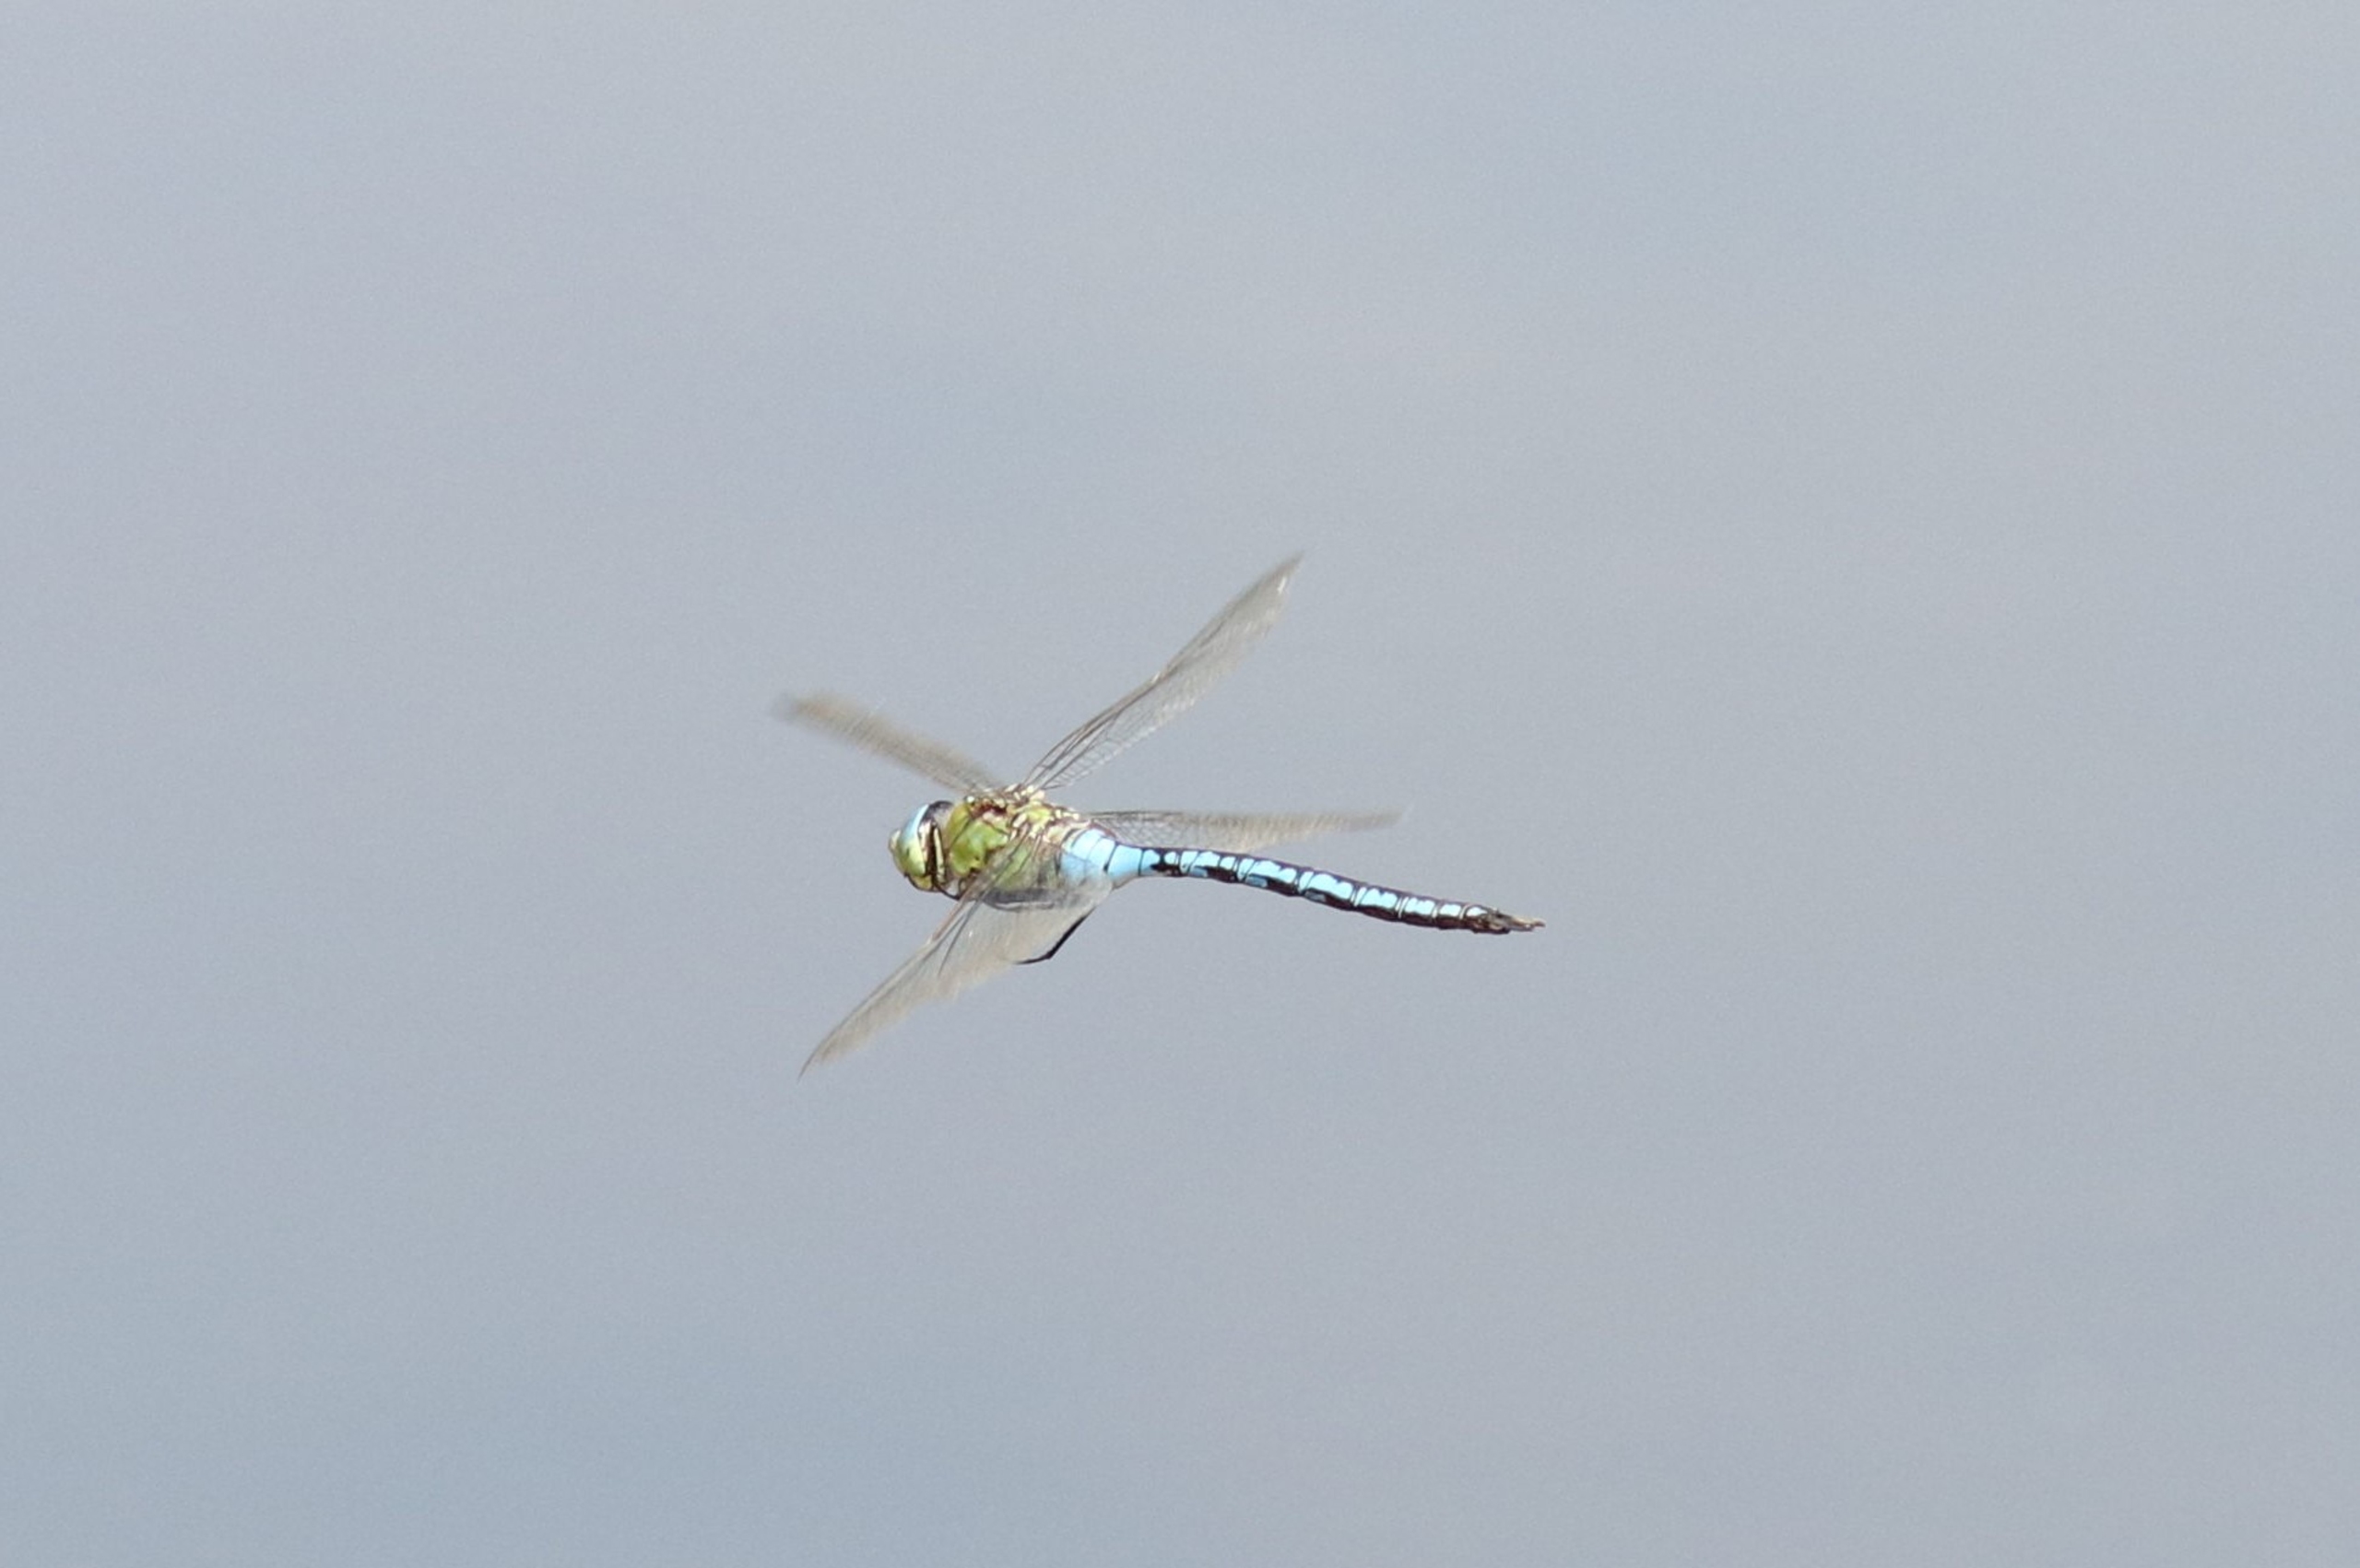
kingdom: Animalia
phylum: Arthropoda
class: Insecta
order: Odonata
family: Aeshnidae
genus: Anax
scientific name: Anax imperator
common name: Stor kejserguldsmed
